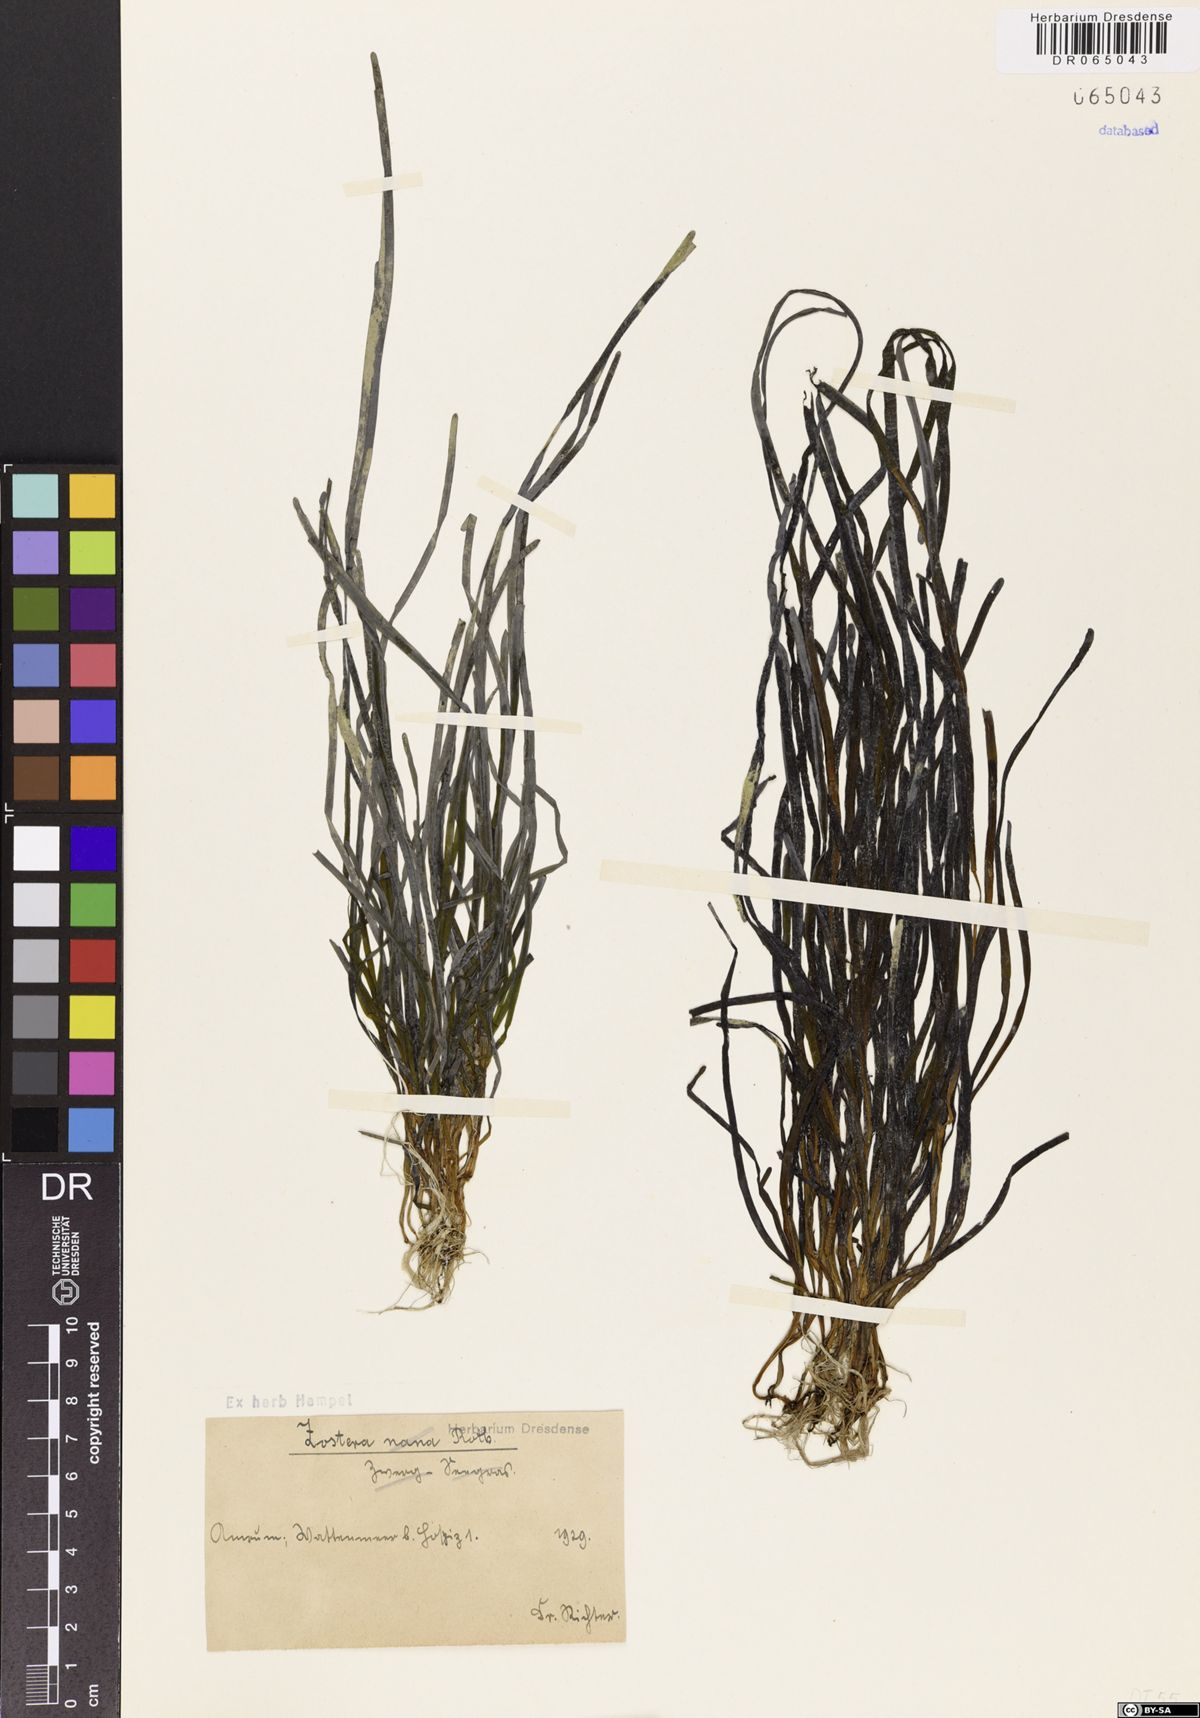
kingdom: Plantae
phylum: Tracheophyta
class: Liliopsida
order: Alismatales
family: Zosteraceae
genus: Zostera
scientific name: Zostera
